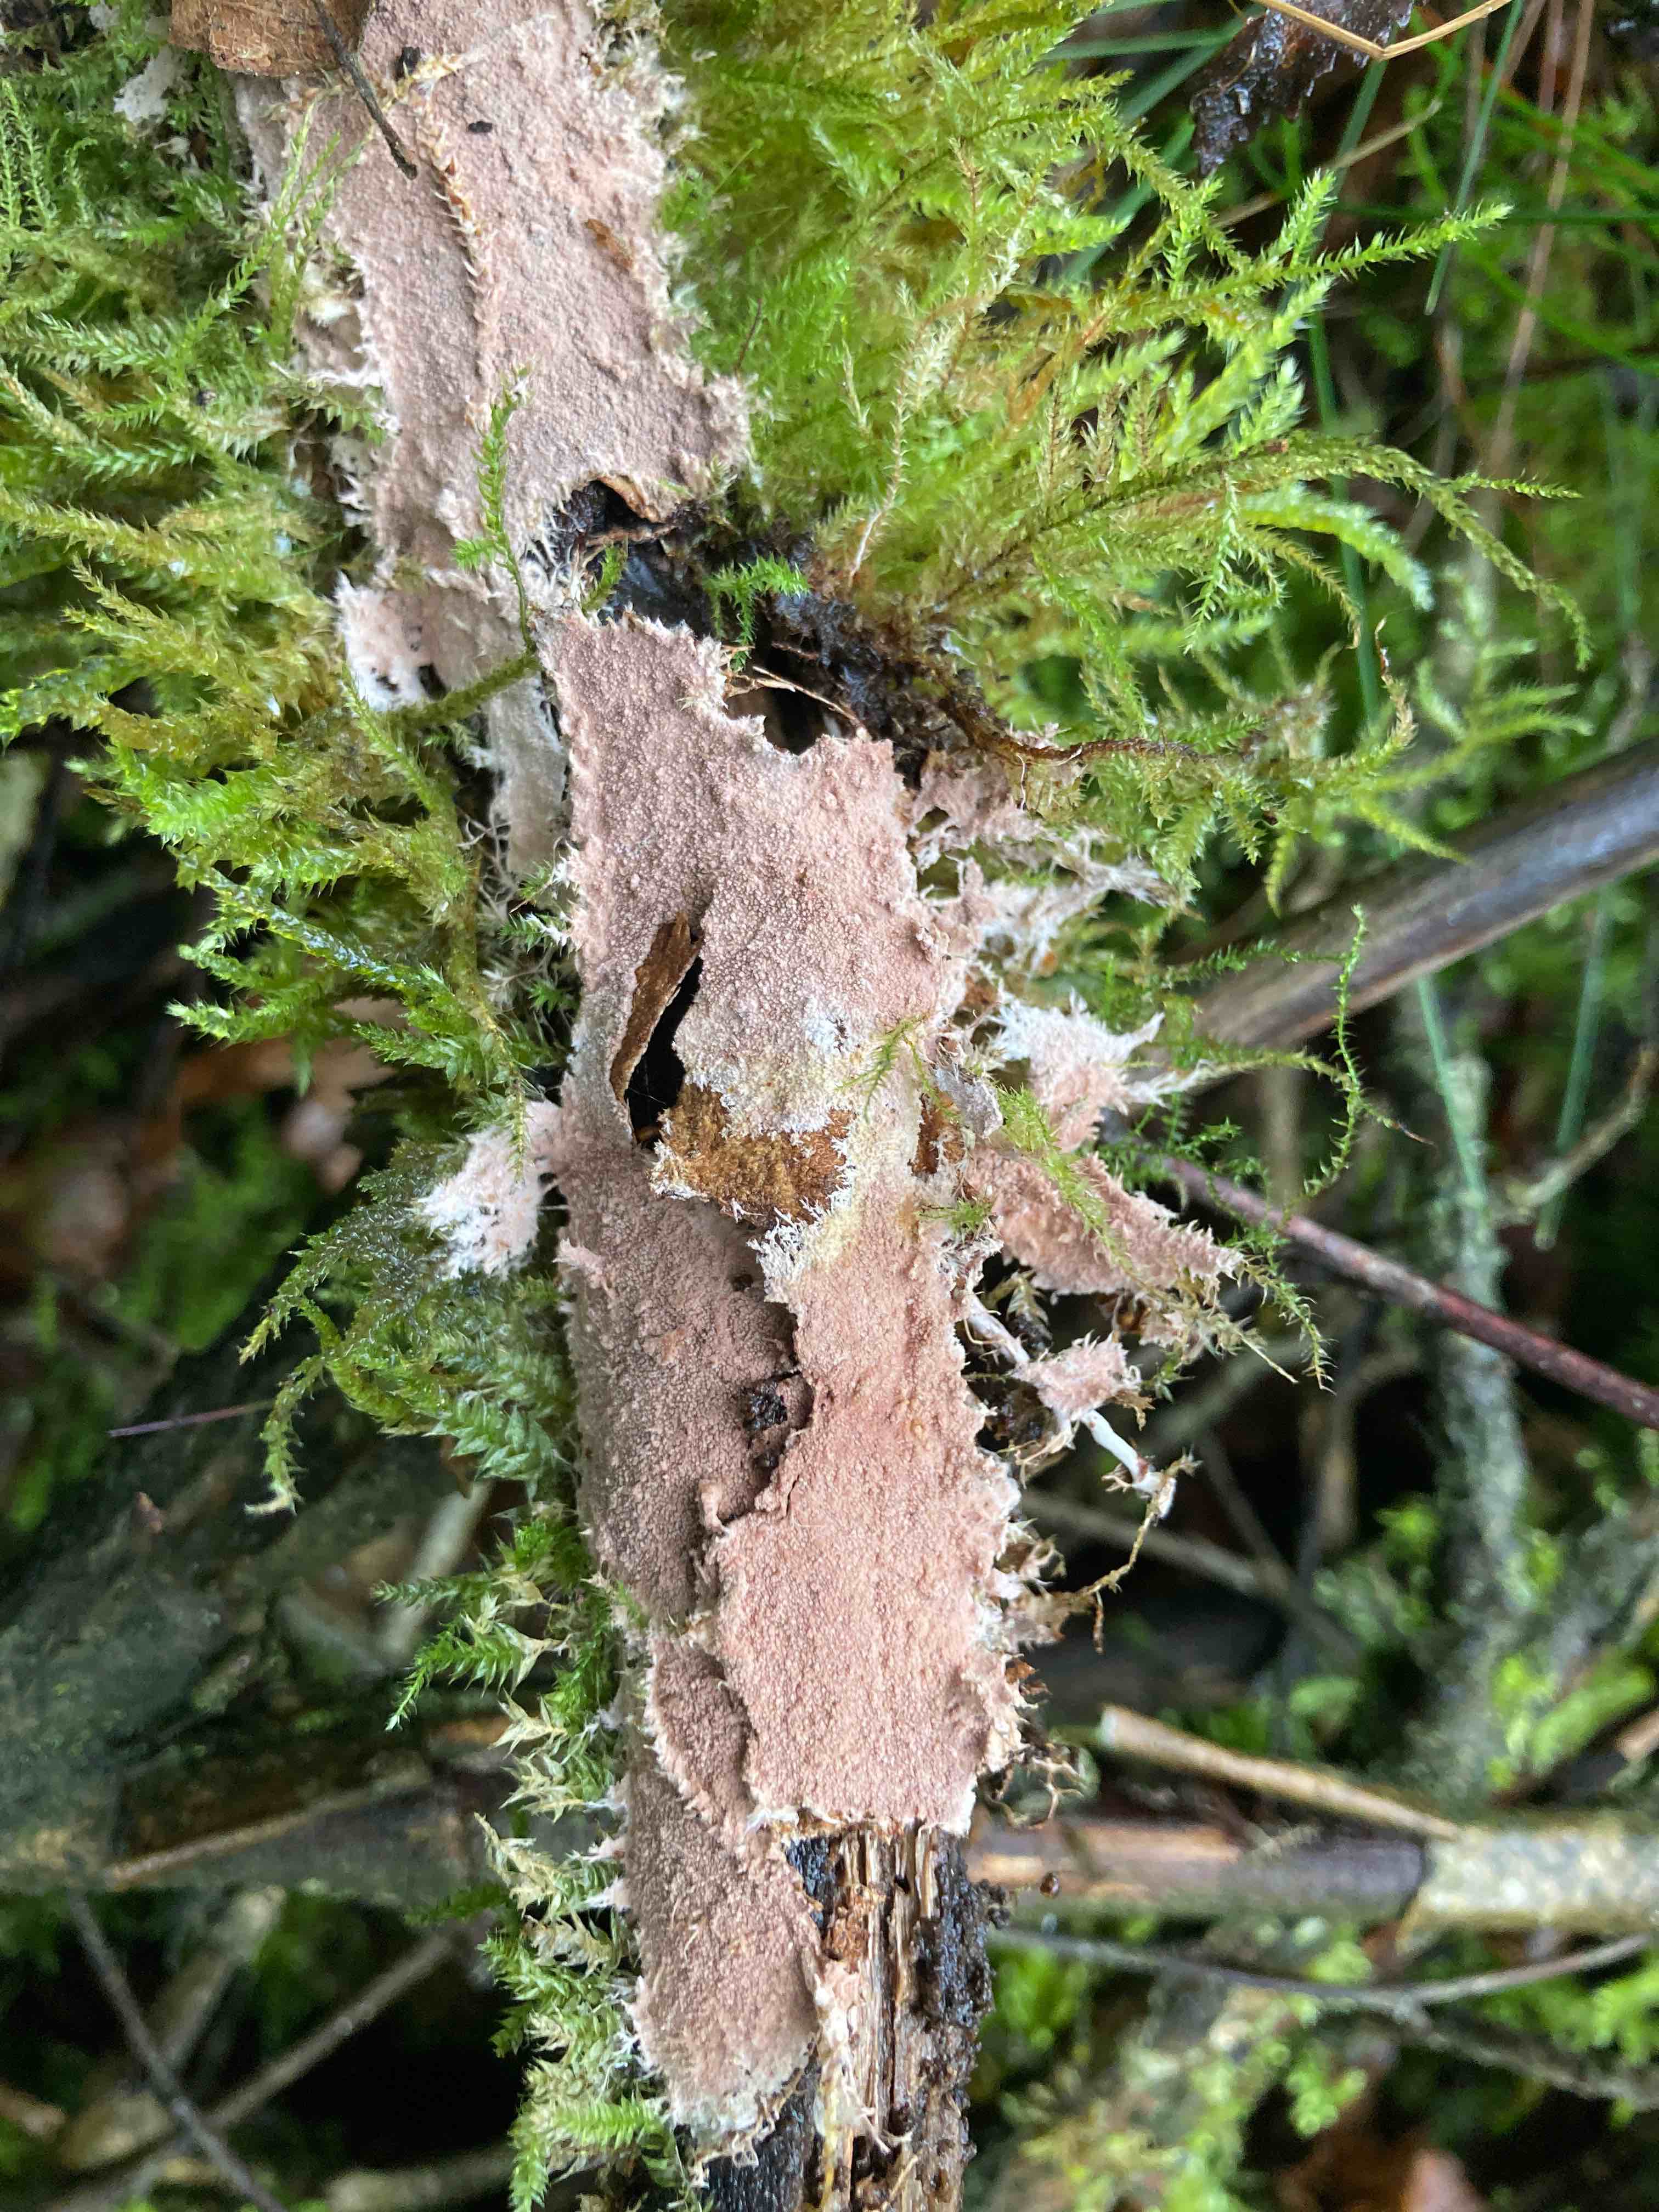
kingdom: Fungi
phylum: Basidiomycota
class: Agaricomycetes
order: Polyporales
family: Steccherinaceae
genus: Steccherinum
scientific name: Steccherinum fimbriatum
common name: trådet skønpig
